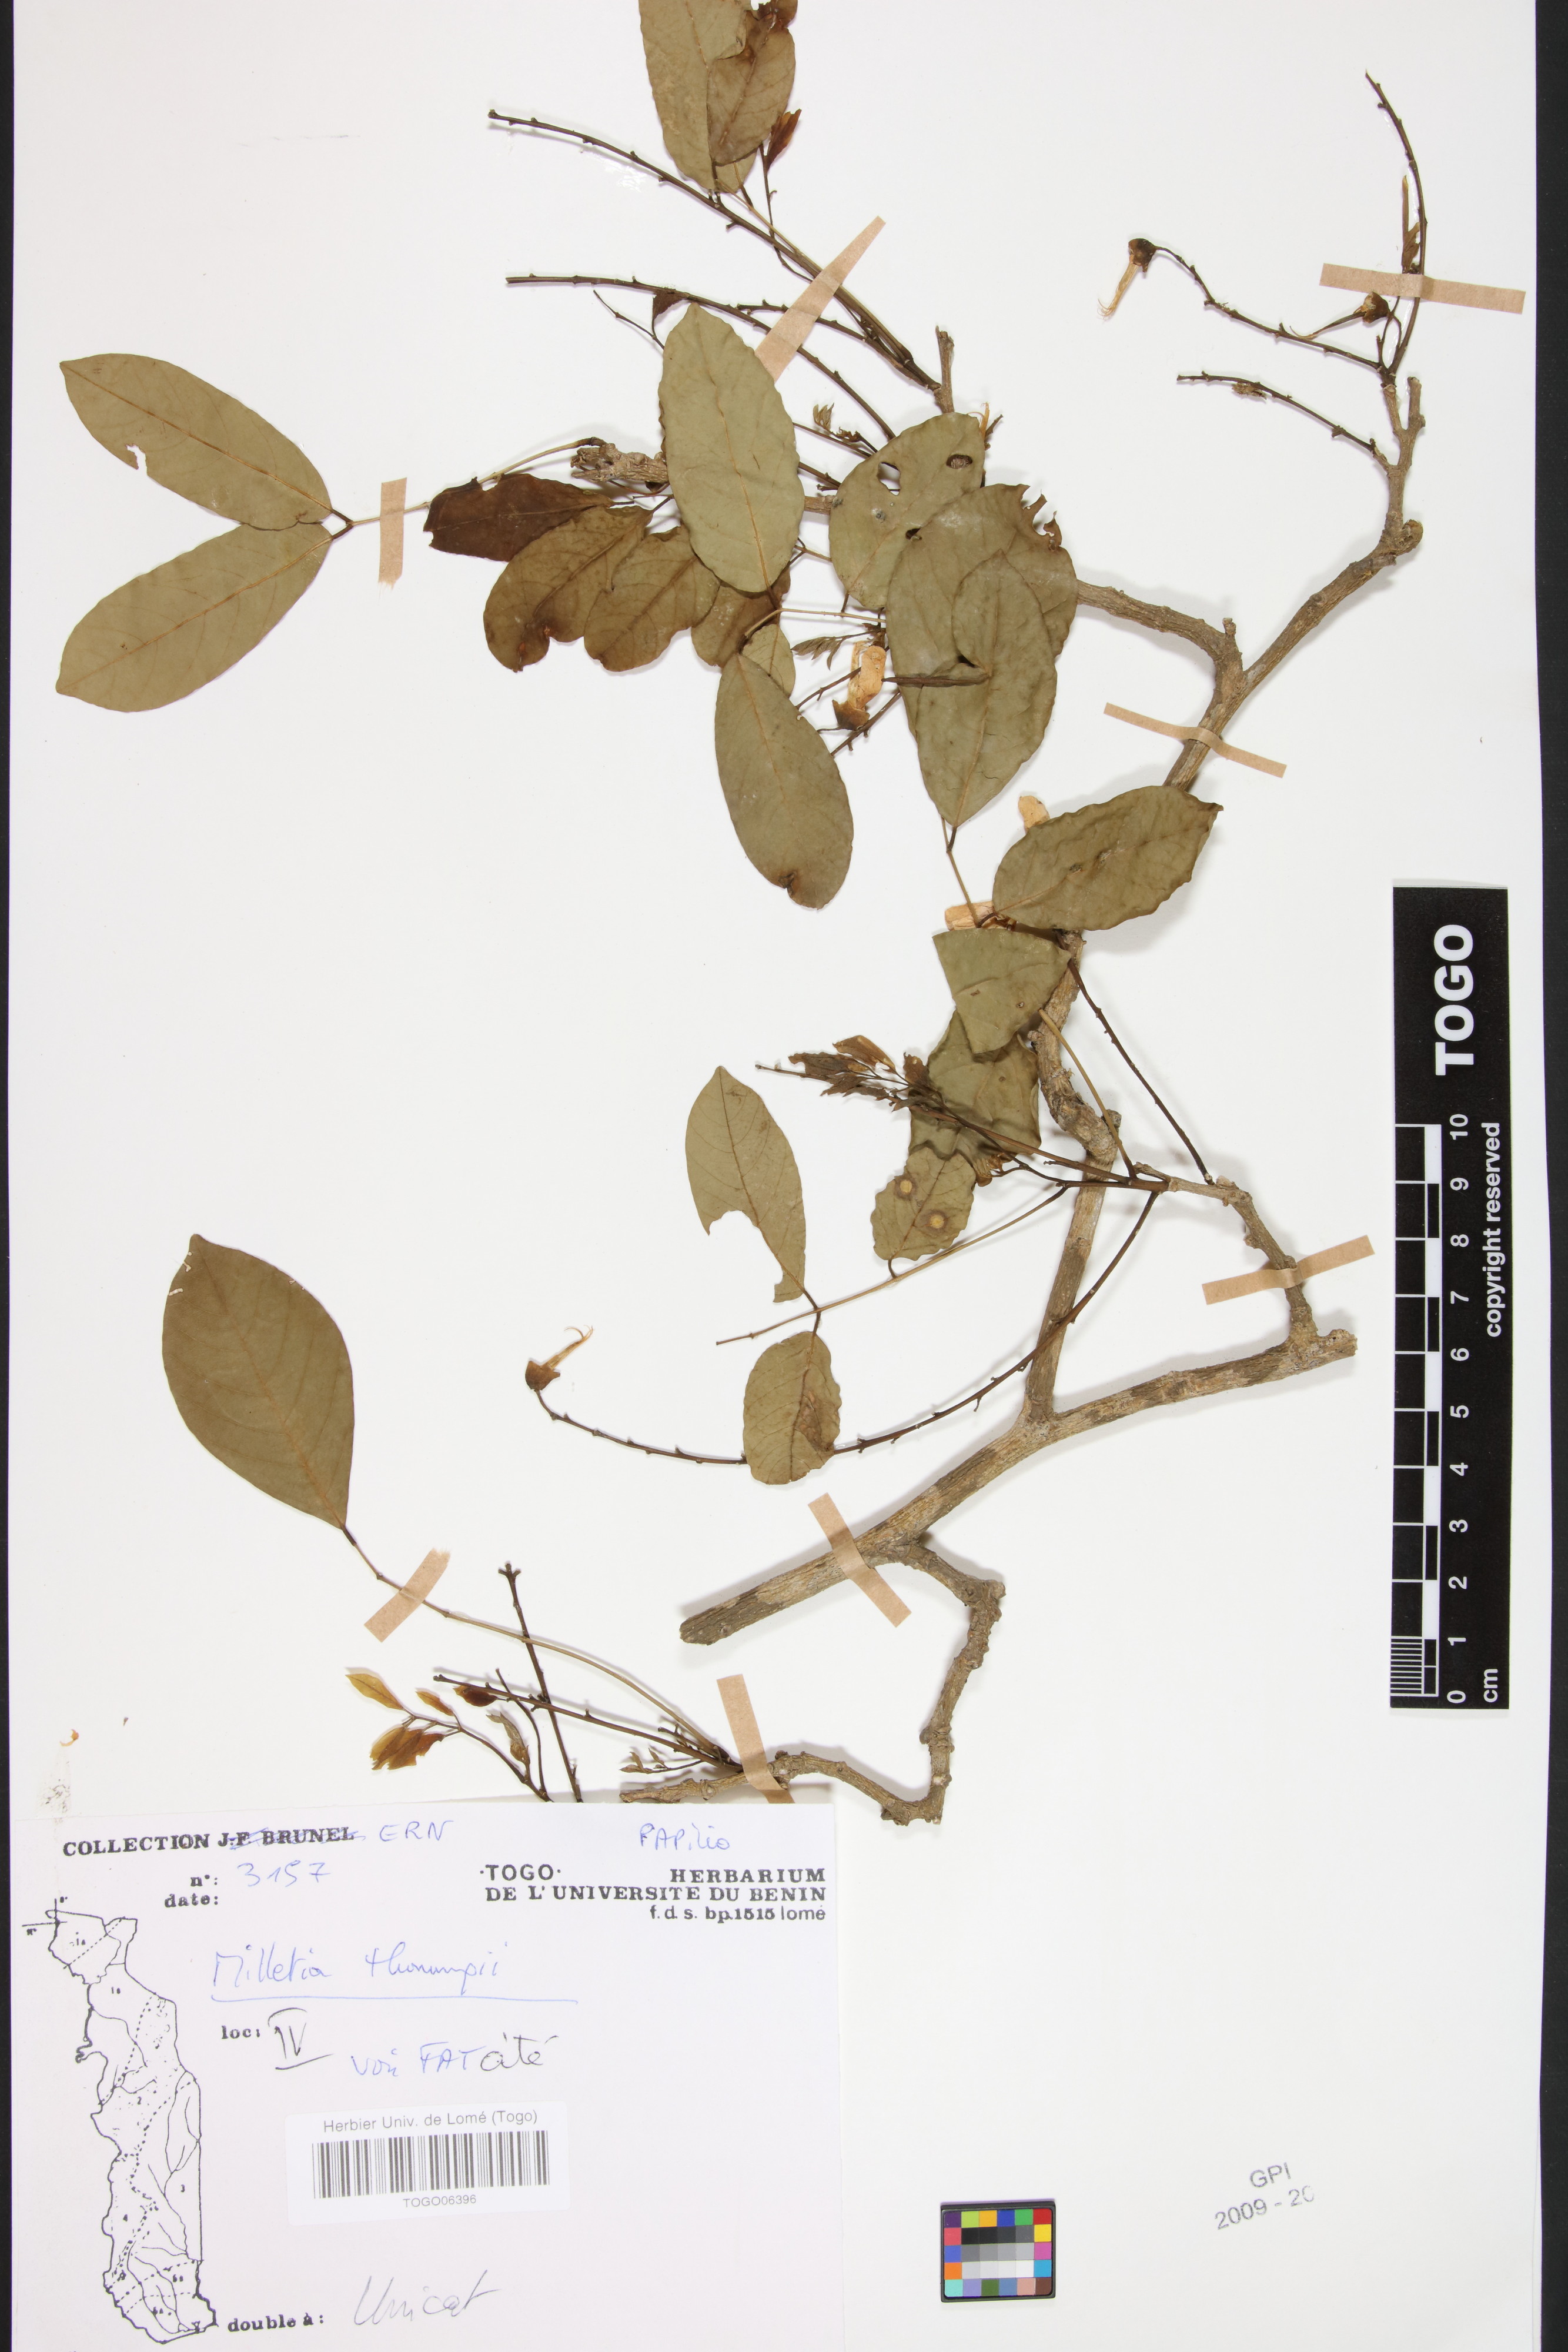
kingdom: Plantae
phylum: Tracheophyta
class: Magnoliopsida
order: Fabales
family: Fabaceae
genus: Millettia
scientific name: Millettia thonningii
